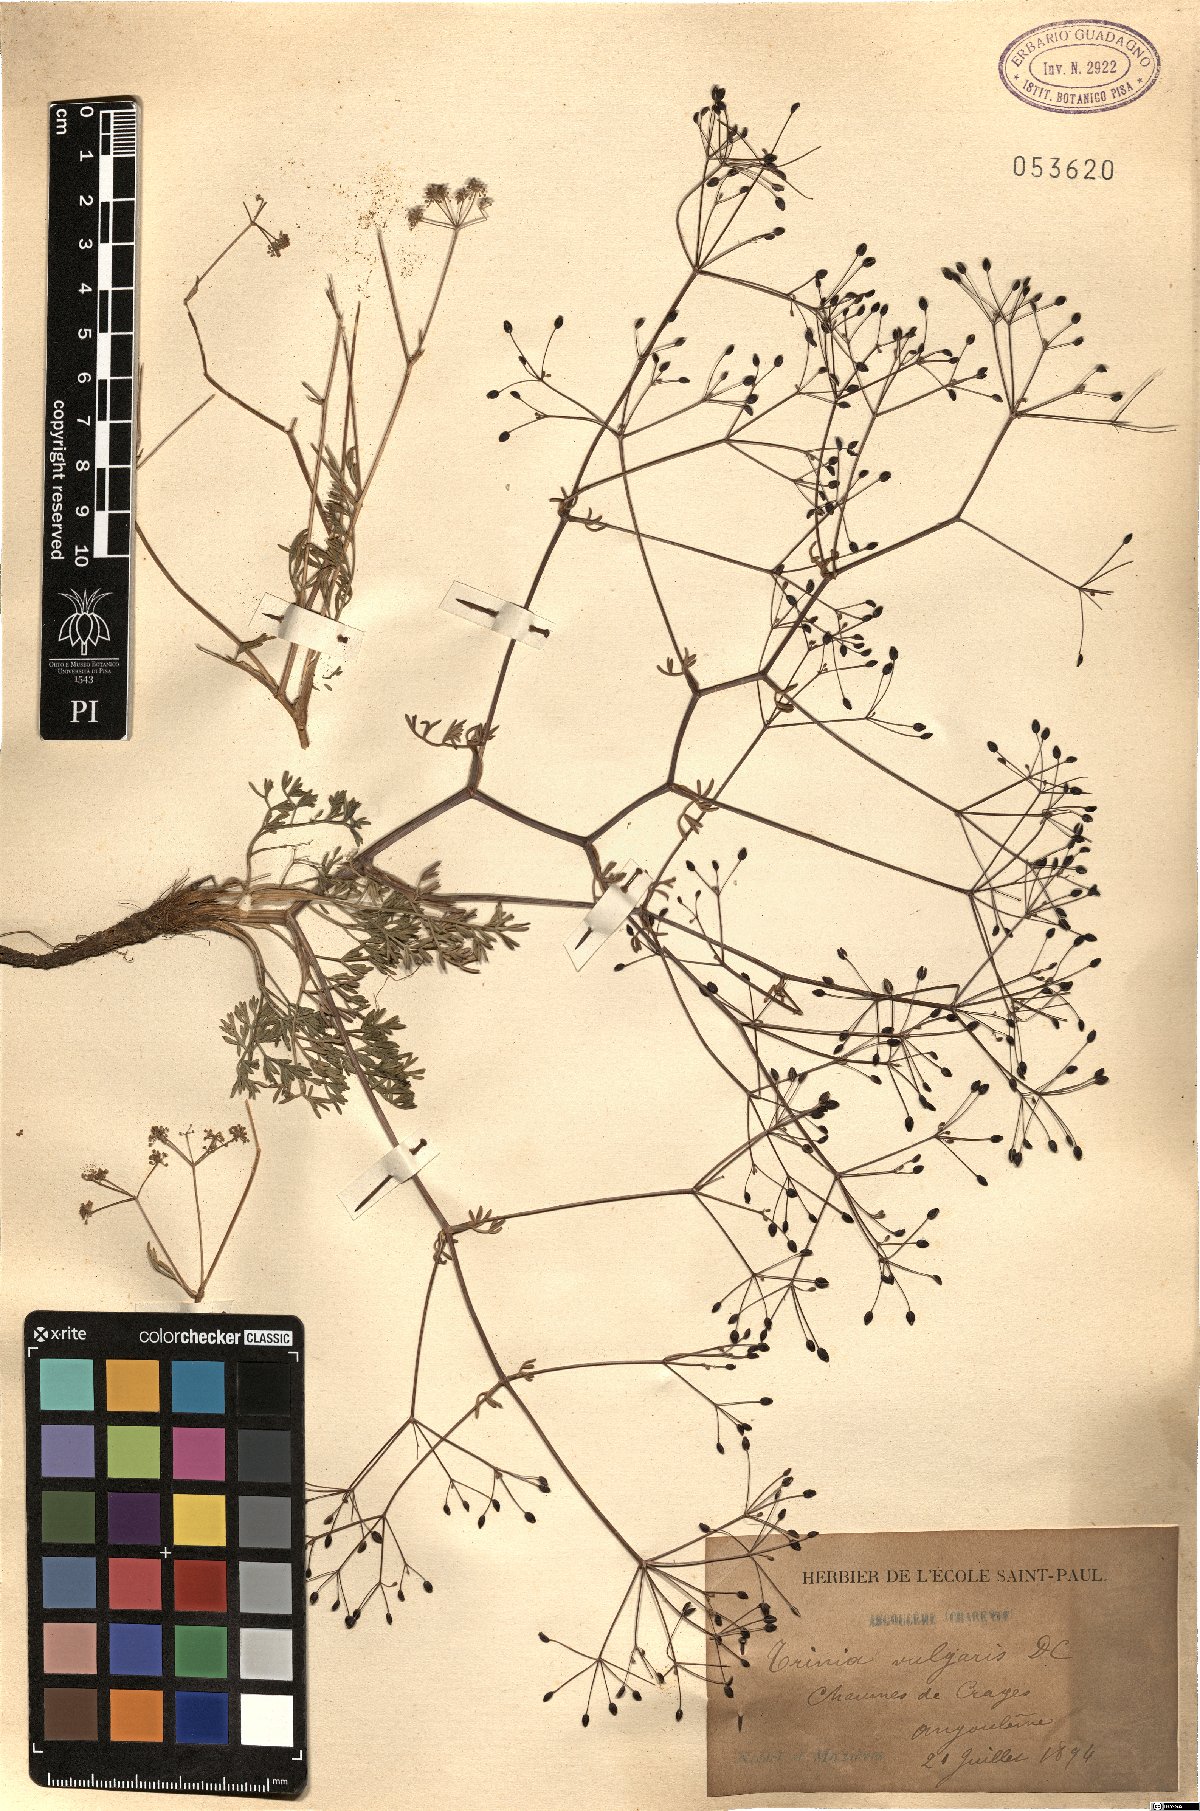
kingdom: Plantae
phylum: Tracheophyta
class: Magnoliopsida
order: Apiales
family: Apiaceae
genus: Trinia
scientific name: Trinia glauca
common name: Honewort
